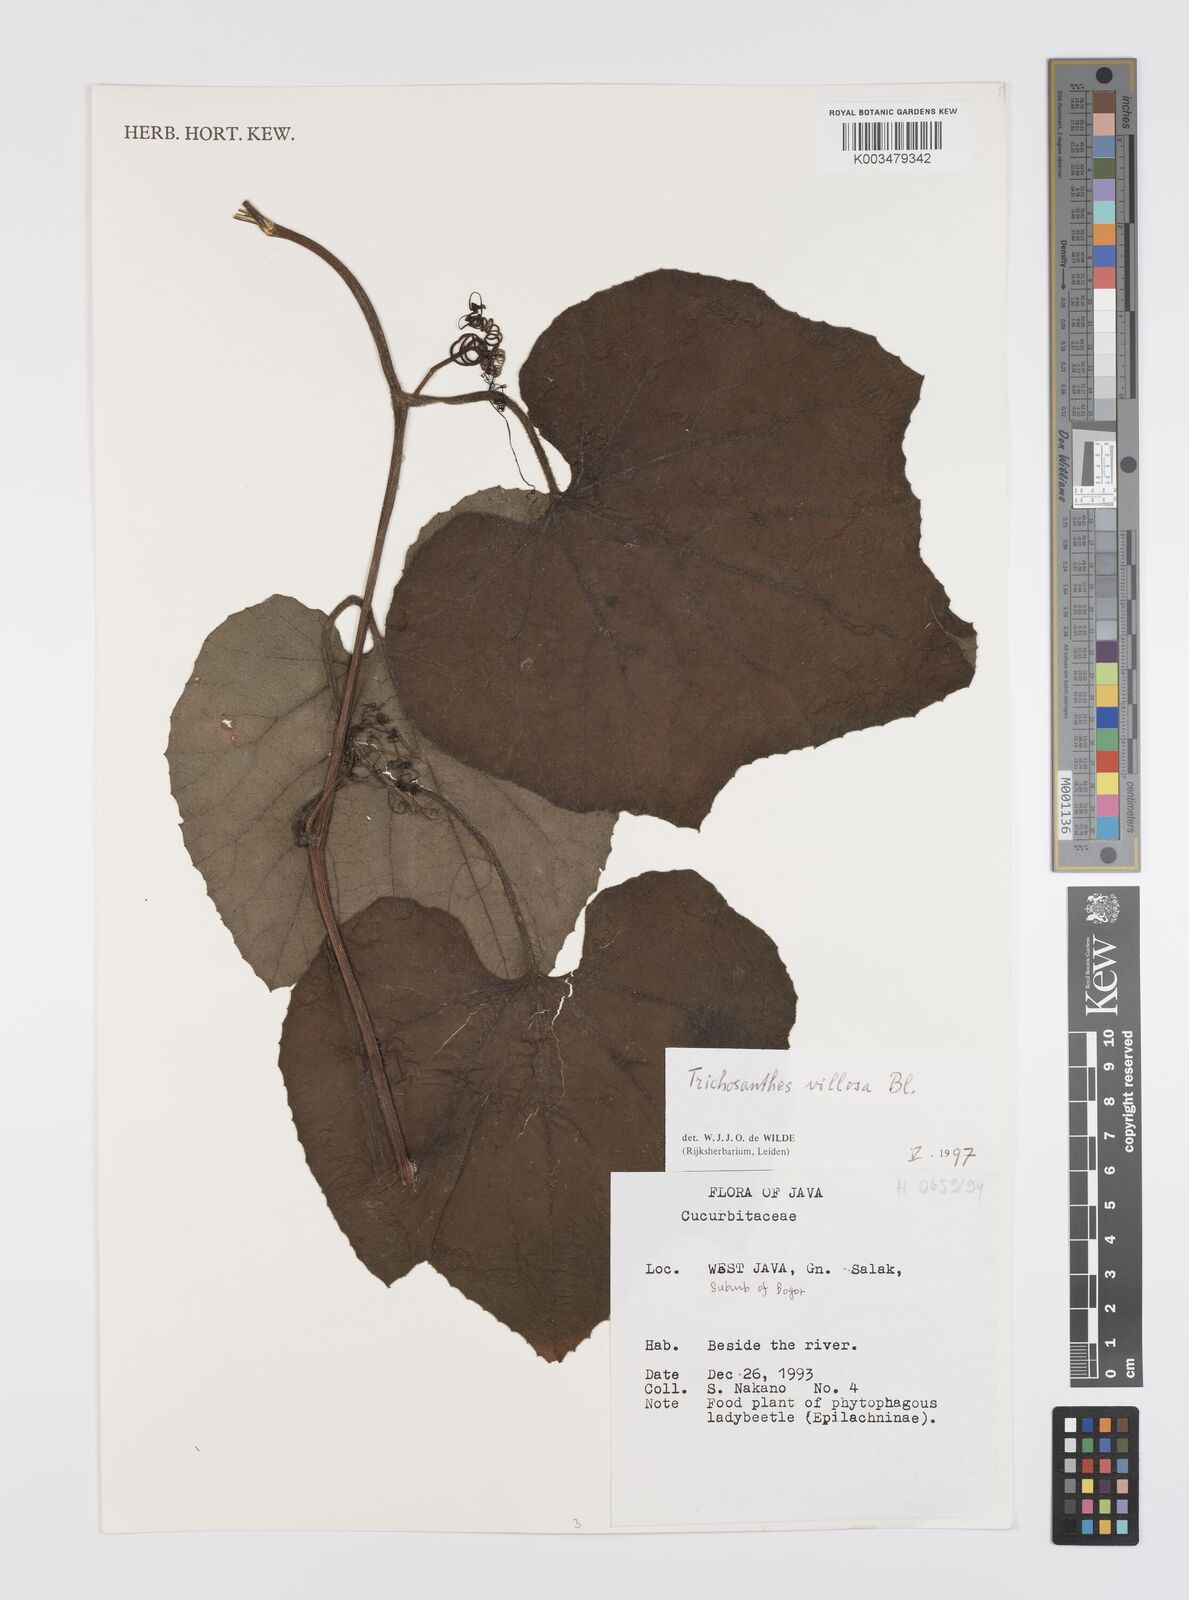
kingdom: Plantae
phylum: Tracheophyta
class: Magnoliopsida
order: Cucurbitales
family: Cucurbitaceae
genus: Trichosanthes
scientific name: Trichosanthes villosa
